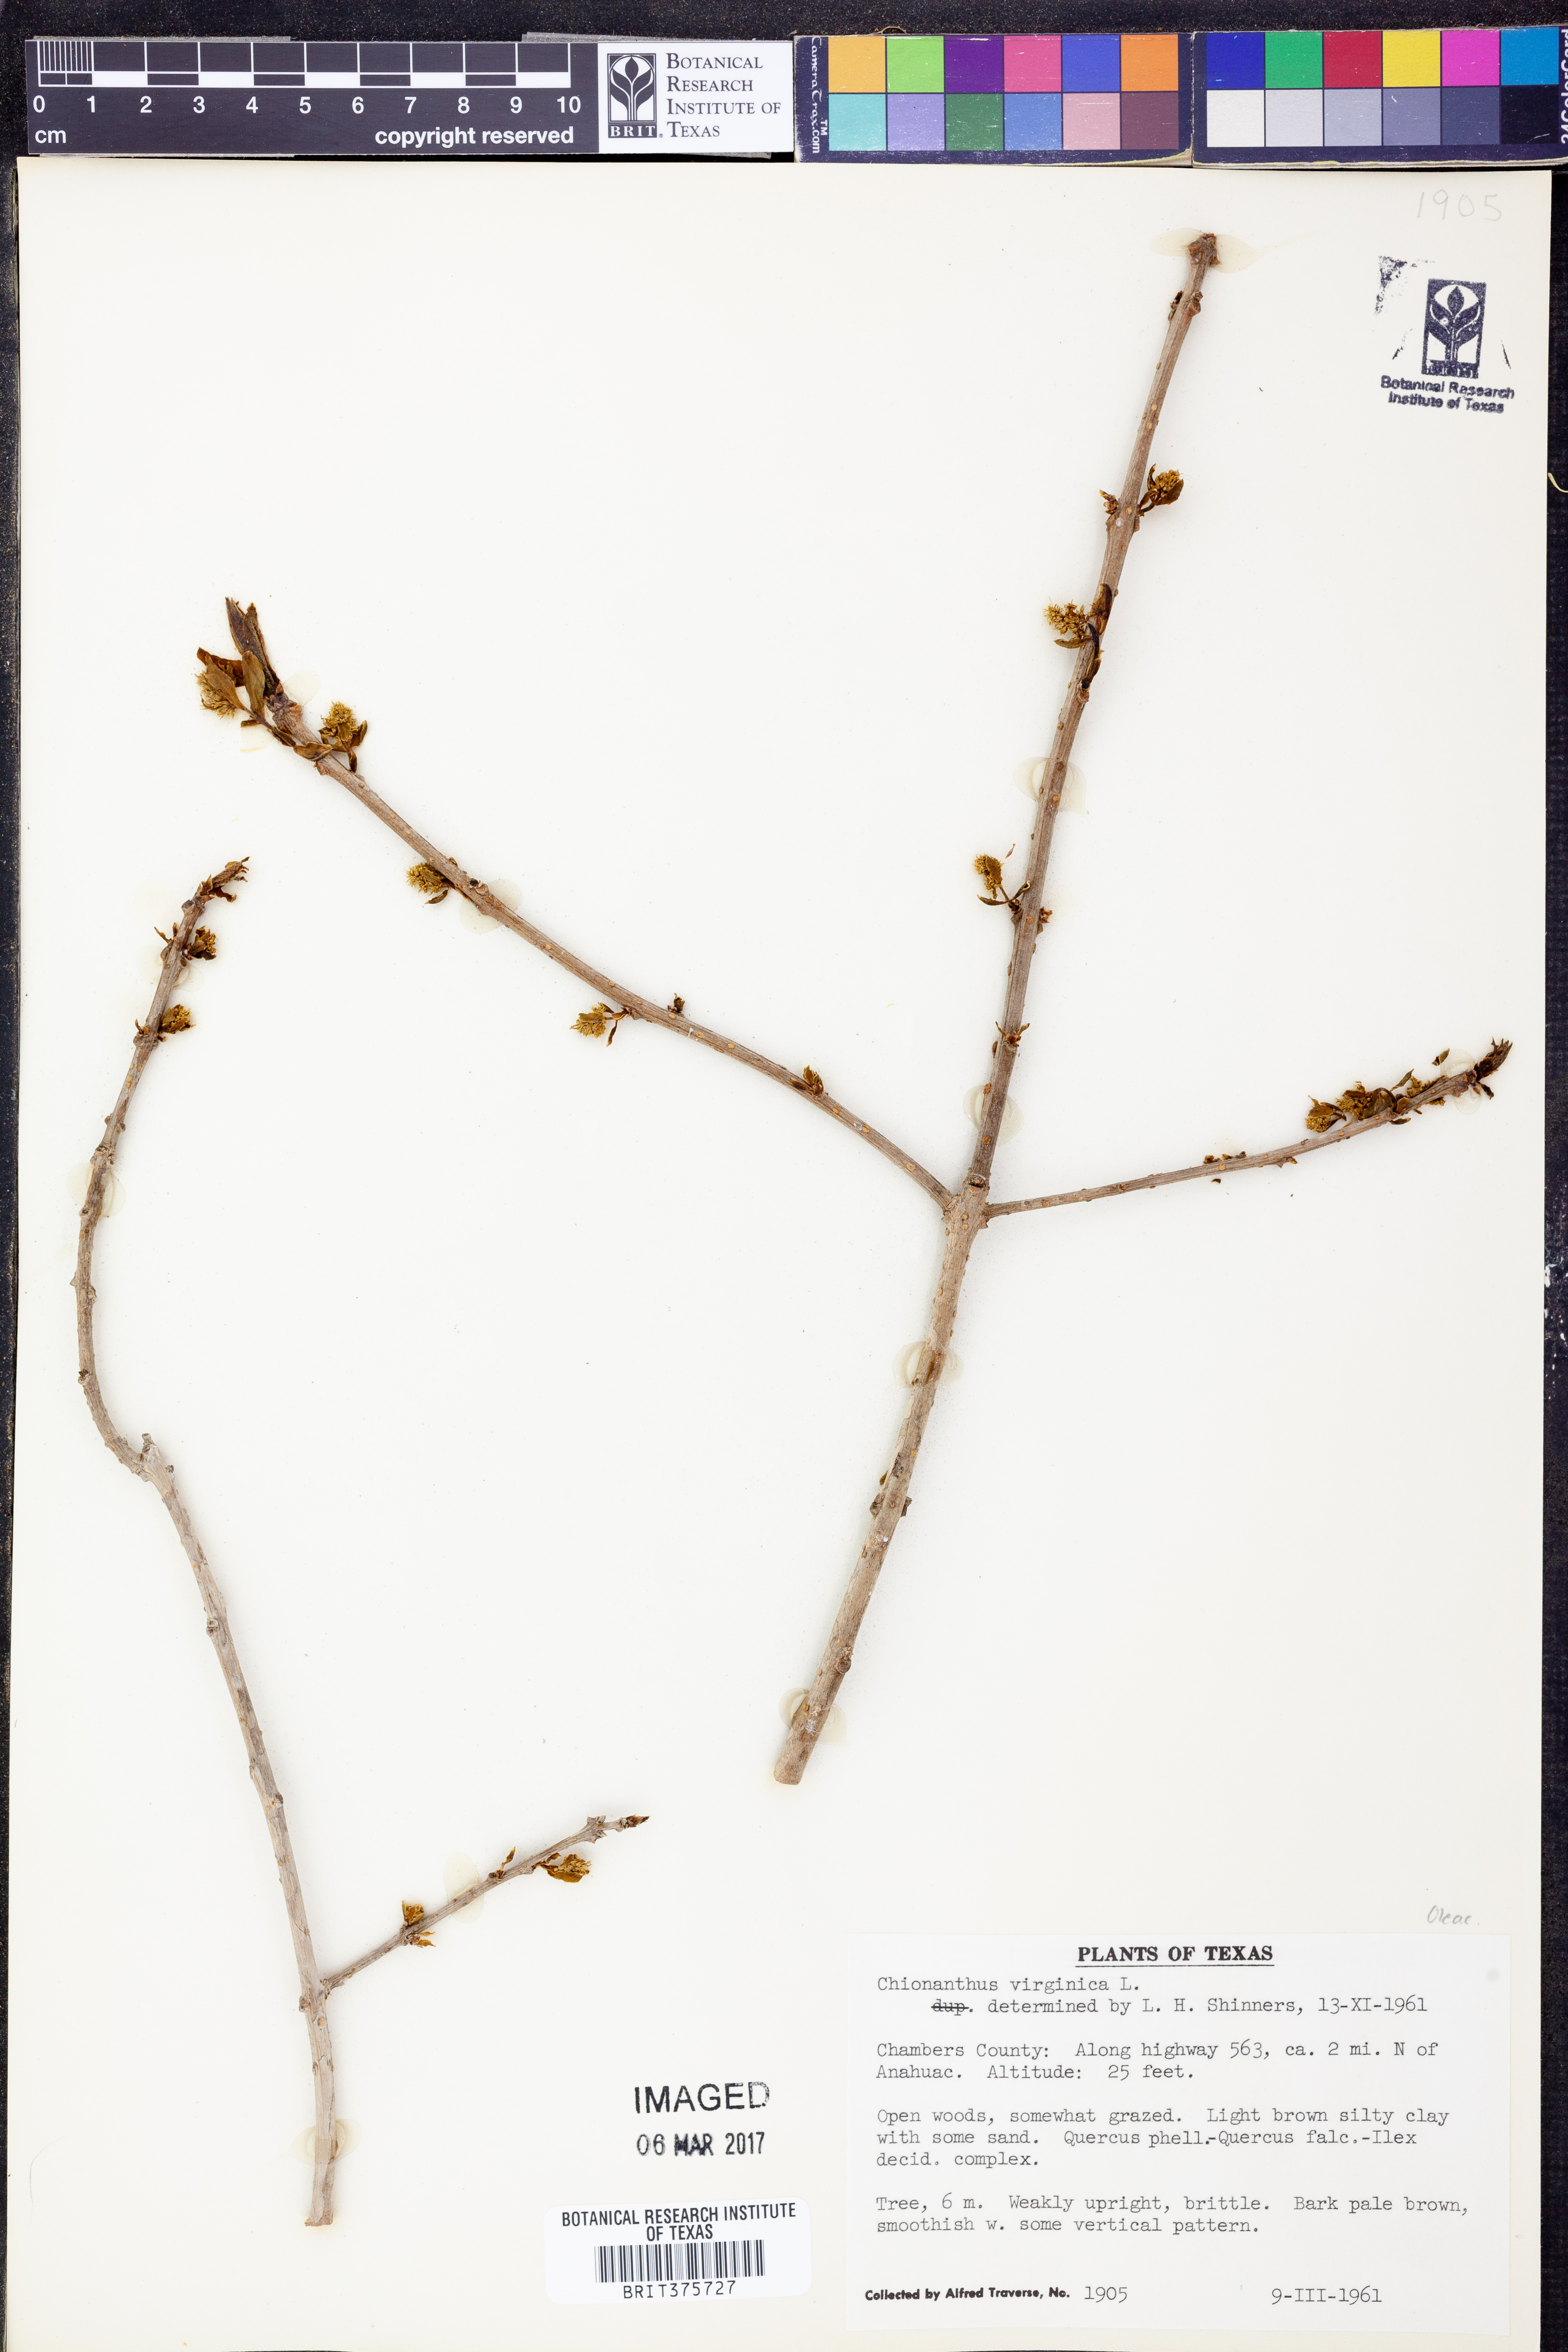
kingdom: Plantae
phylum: Tracheophyta
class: Magnoliopsida
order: Lamiales
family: Oleaceae
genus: Chionanthus
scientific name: Chionanthus virginicus
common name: American fringetree
